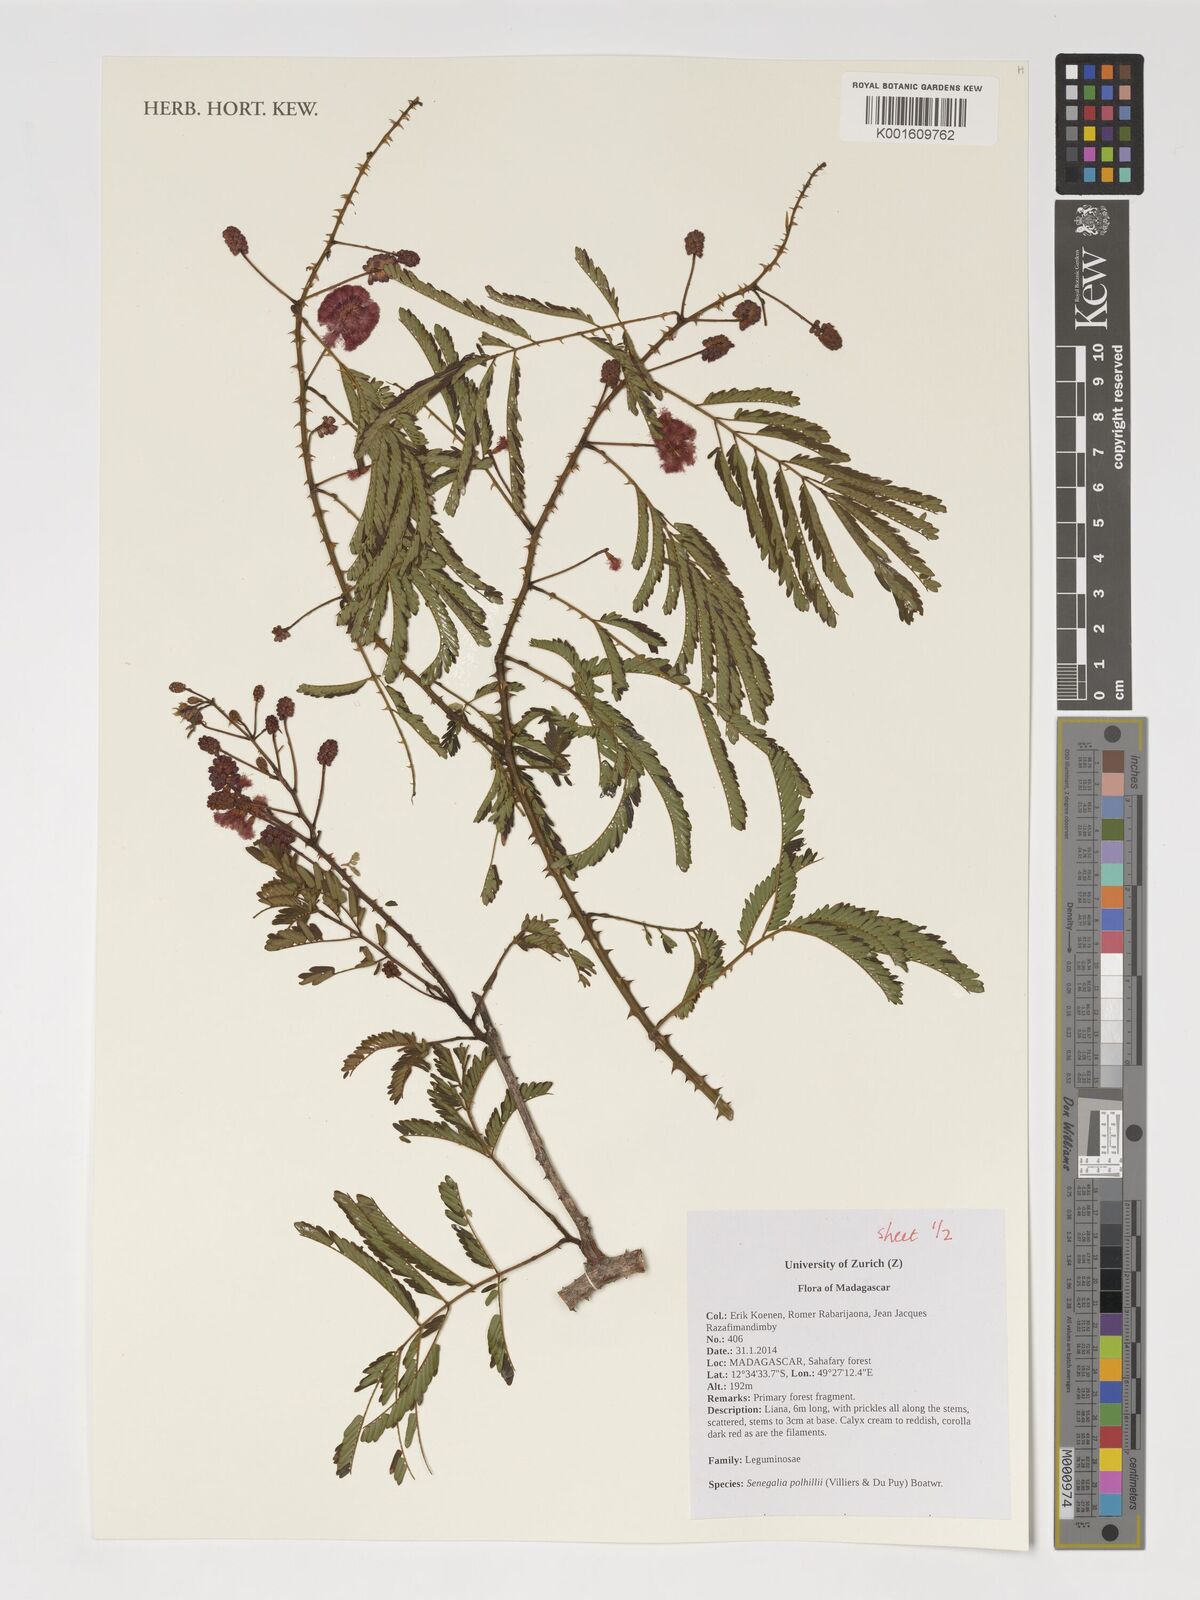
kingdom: Plantae
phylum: Tracheophyta
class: Magnoliopsida
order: Fabales
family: Fabaceae
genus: Senegalia
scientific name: Senegalia polhillii
